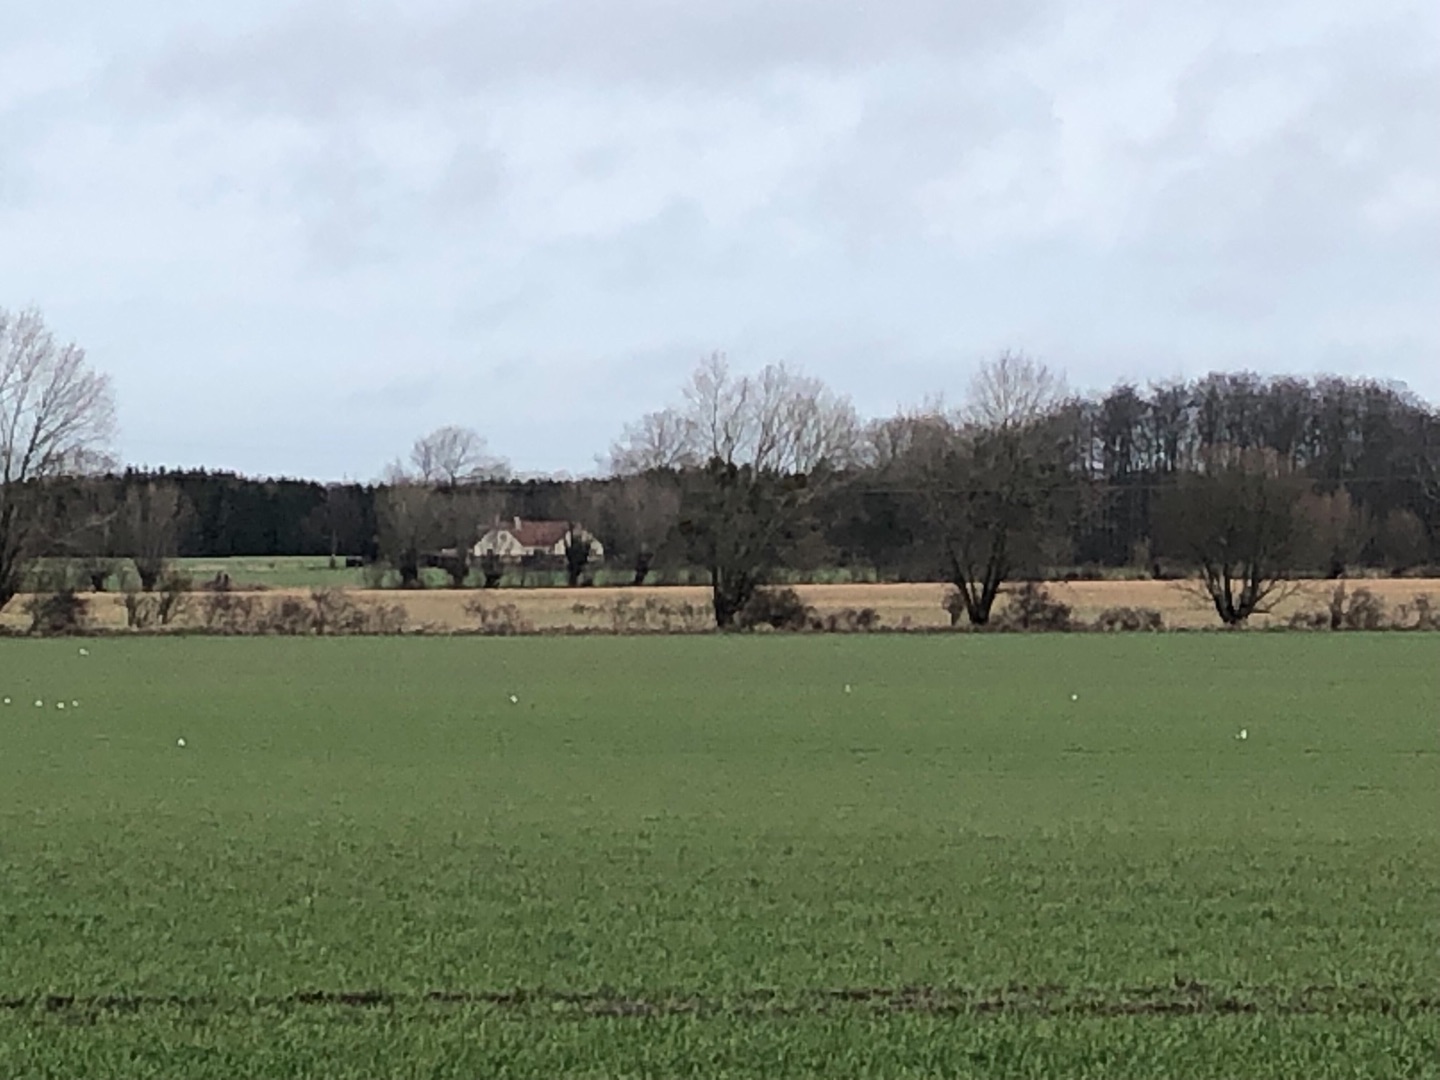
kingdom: Plantae
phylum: Tracheophyta
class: Magnoliopsida
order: Santalales
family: Viscaceae
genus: Viscum
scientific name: Viscum album
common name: Mistelten
